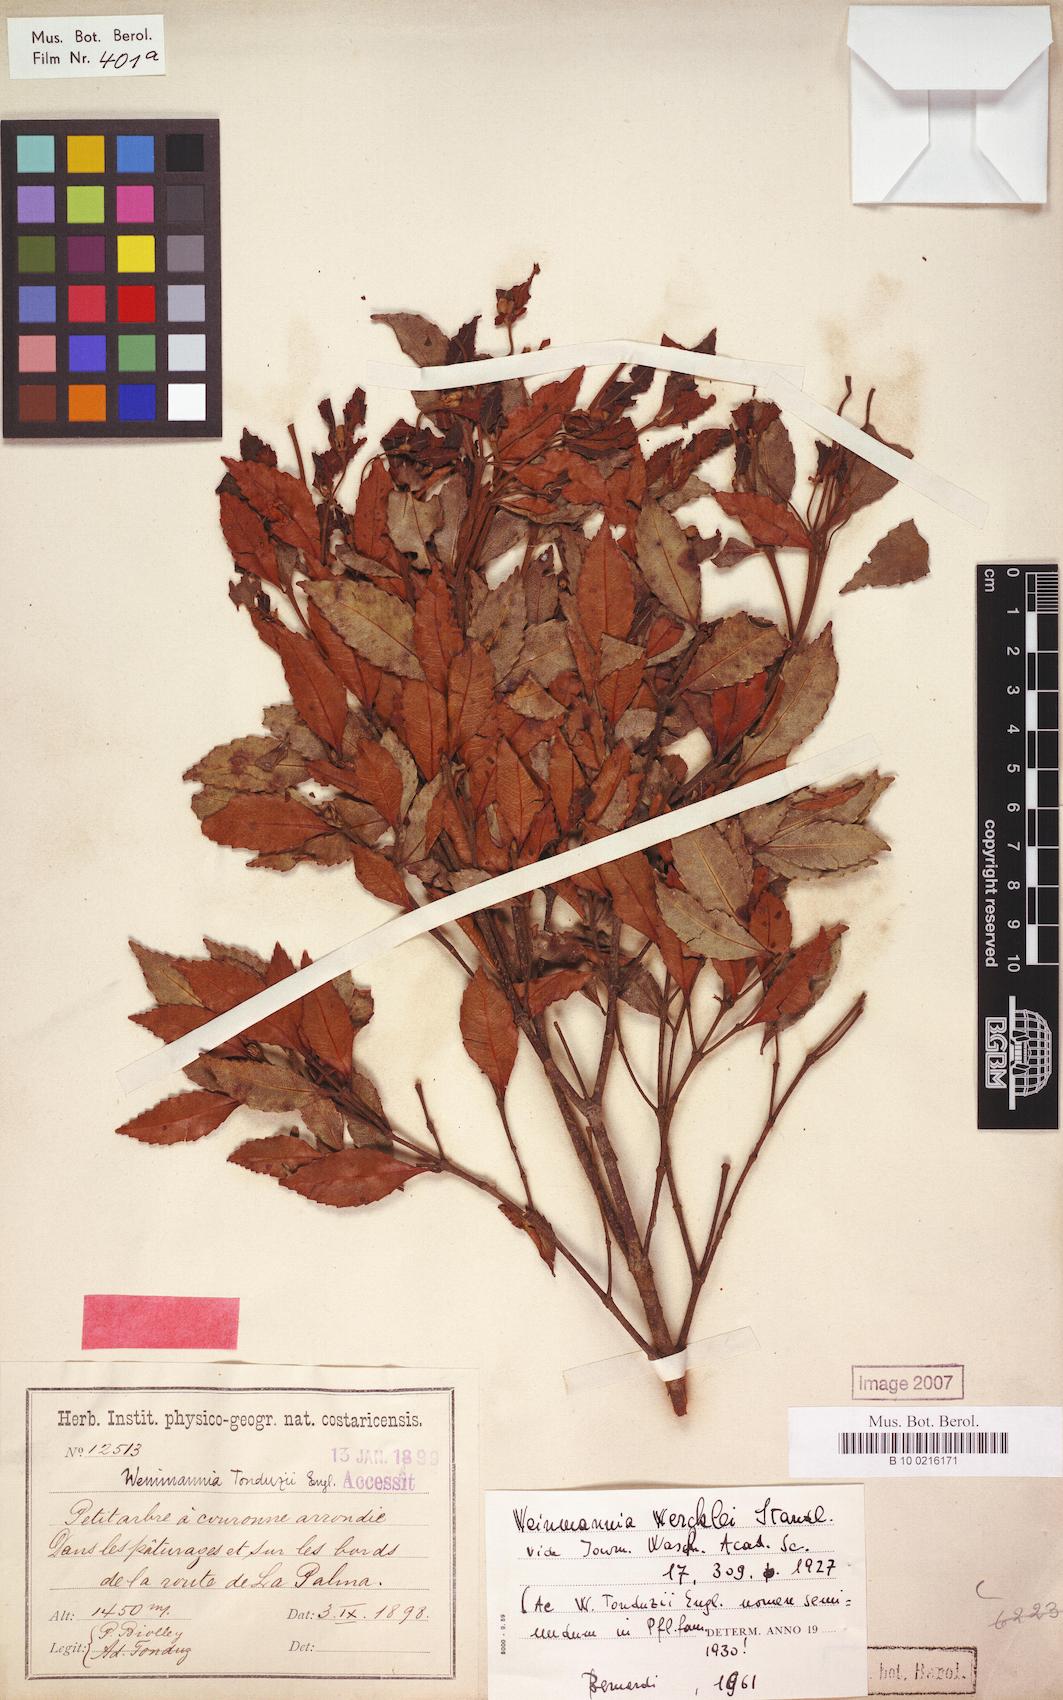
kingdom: Plantae
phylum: Tracheophyta
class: Magnoliopsida
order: Oxalidales
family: Cunoniaceae
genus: Weinmannia
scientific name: Weinmannia wercklei
